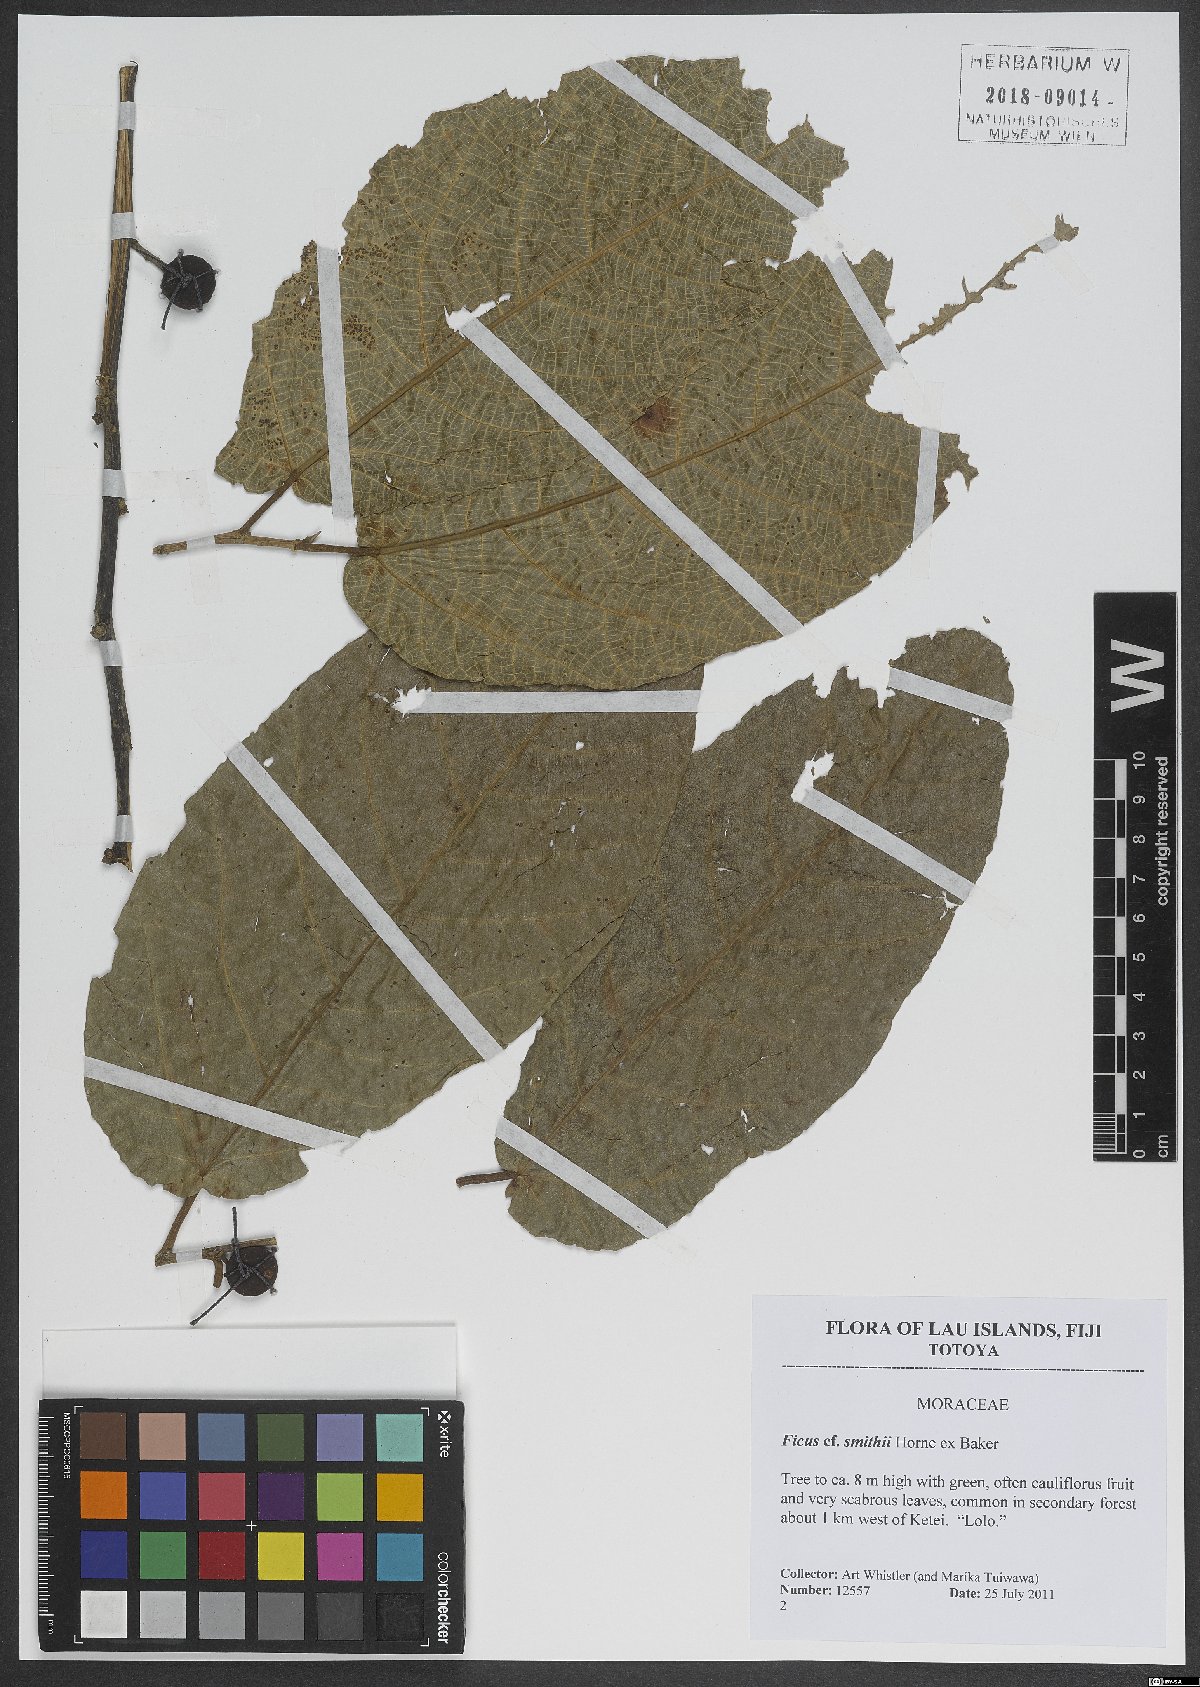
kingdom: Plantae
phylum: Tracheophyta
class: Magnoliopsida
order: Rosales
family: Moraceae
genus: Ficus
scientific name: Ficus smithii
